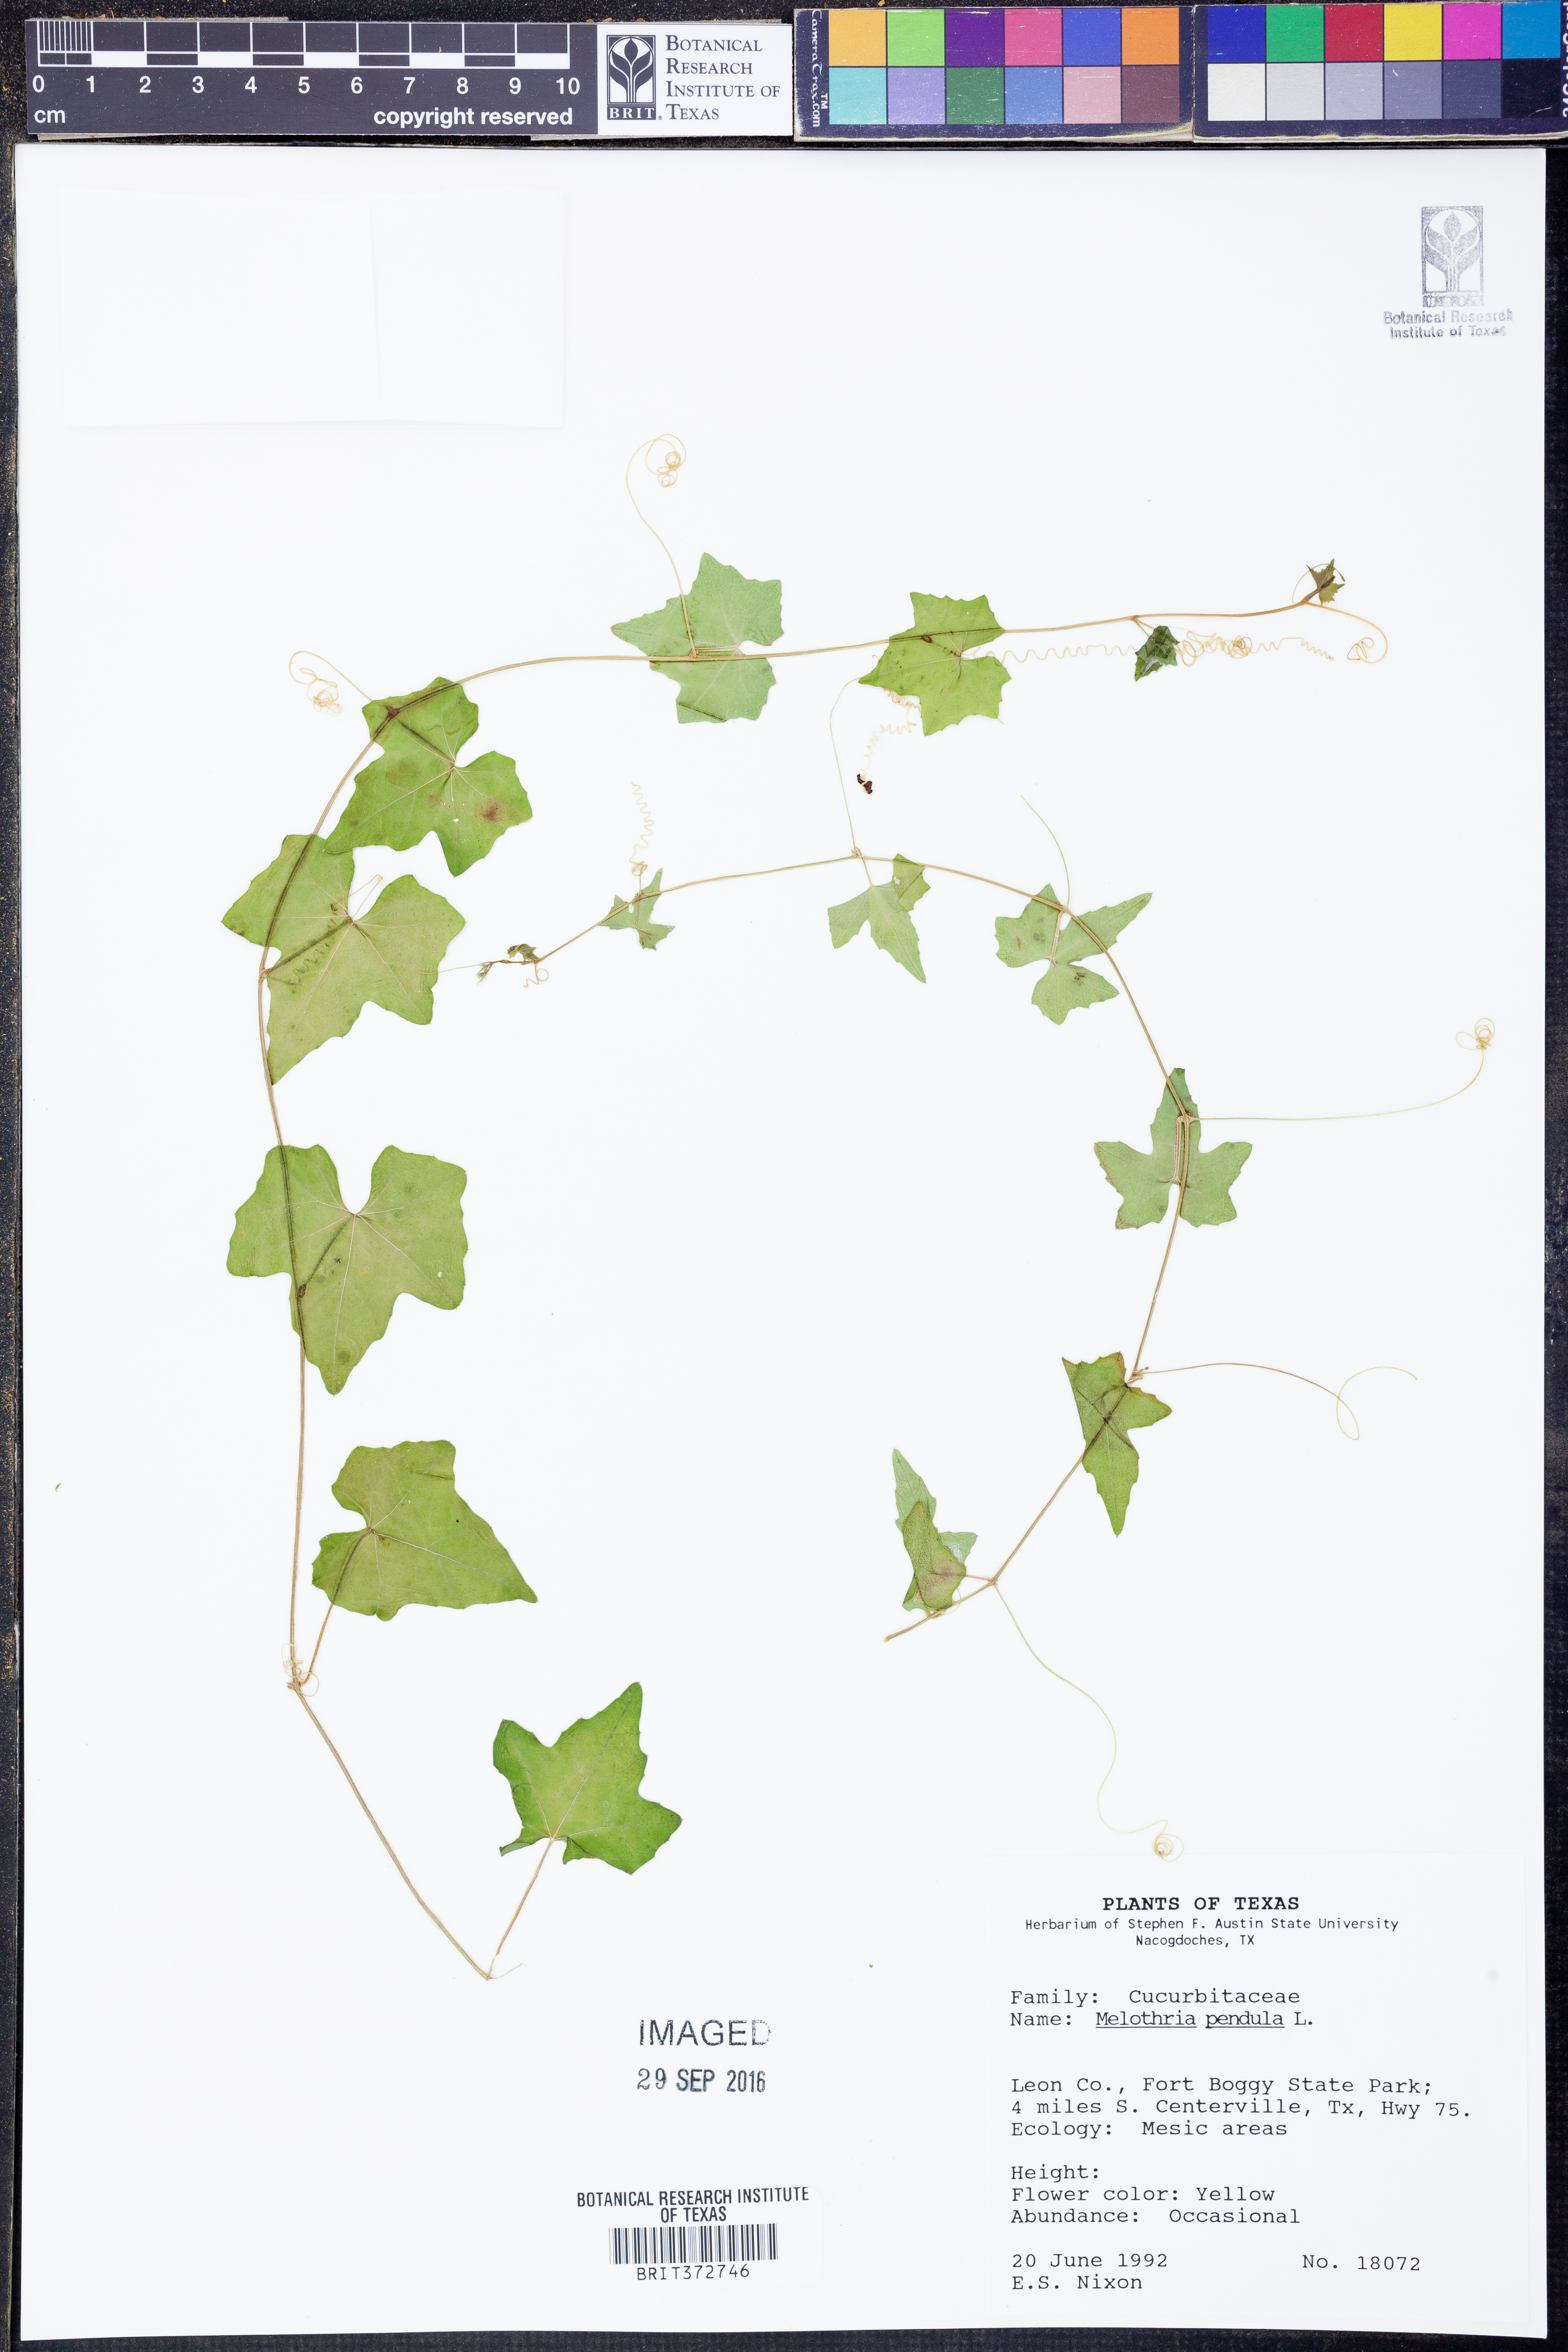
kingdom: Plantae
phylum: Tracheophyta
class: Magnoliopsida
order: Cucurbitales
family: Cucurbitaceae
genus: Melothria
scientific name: Melothria pendula
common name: Creeping-cucumber
